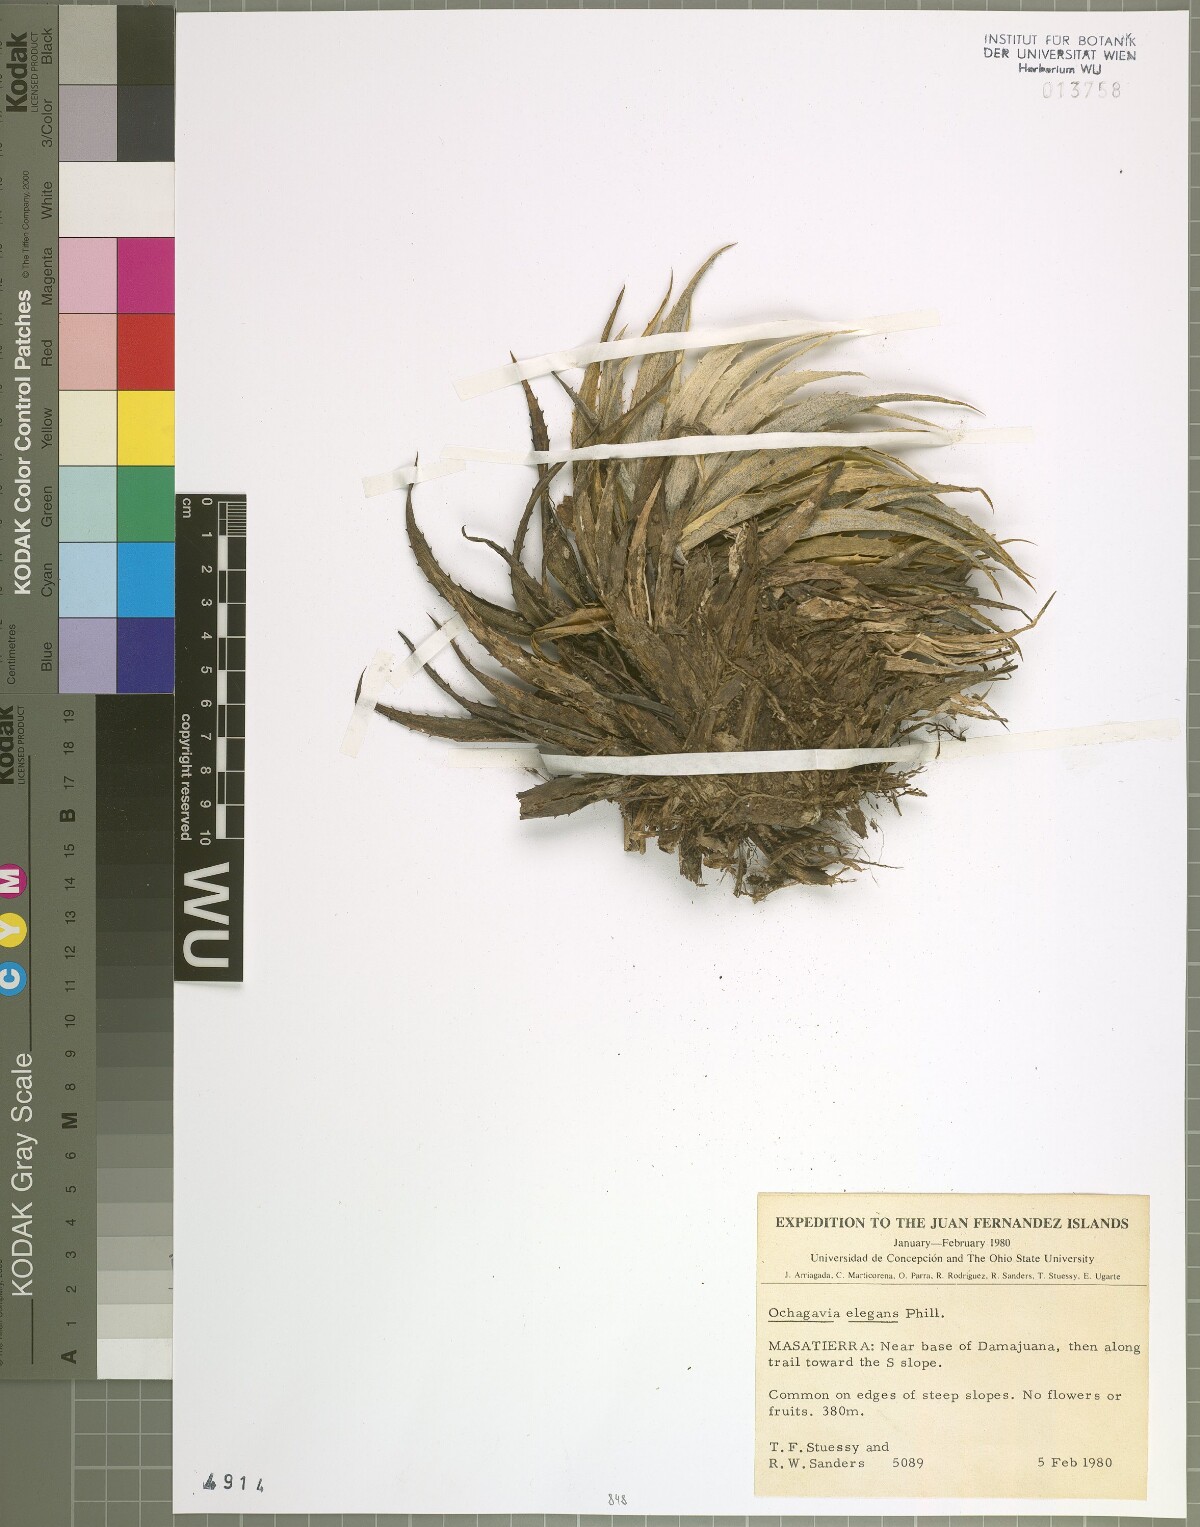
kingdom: Plantae
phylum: Tracheophyta
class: Liliopsida
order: Poales
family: Bromeliaceae
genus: Ochagavia
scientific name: Ochagavia elegans
